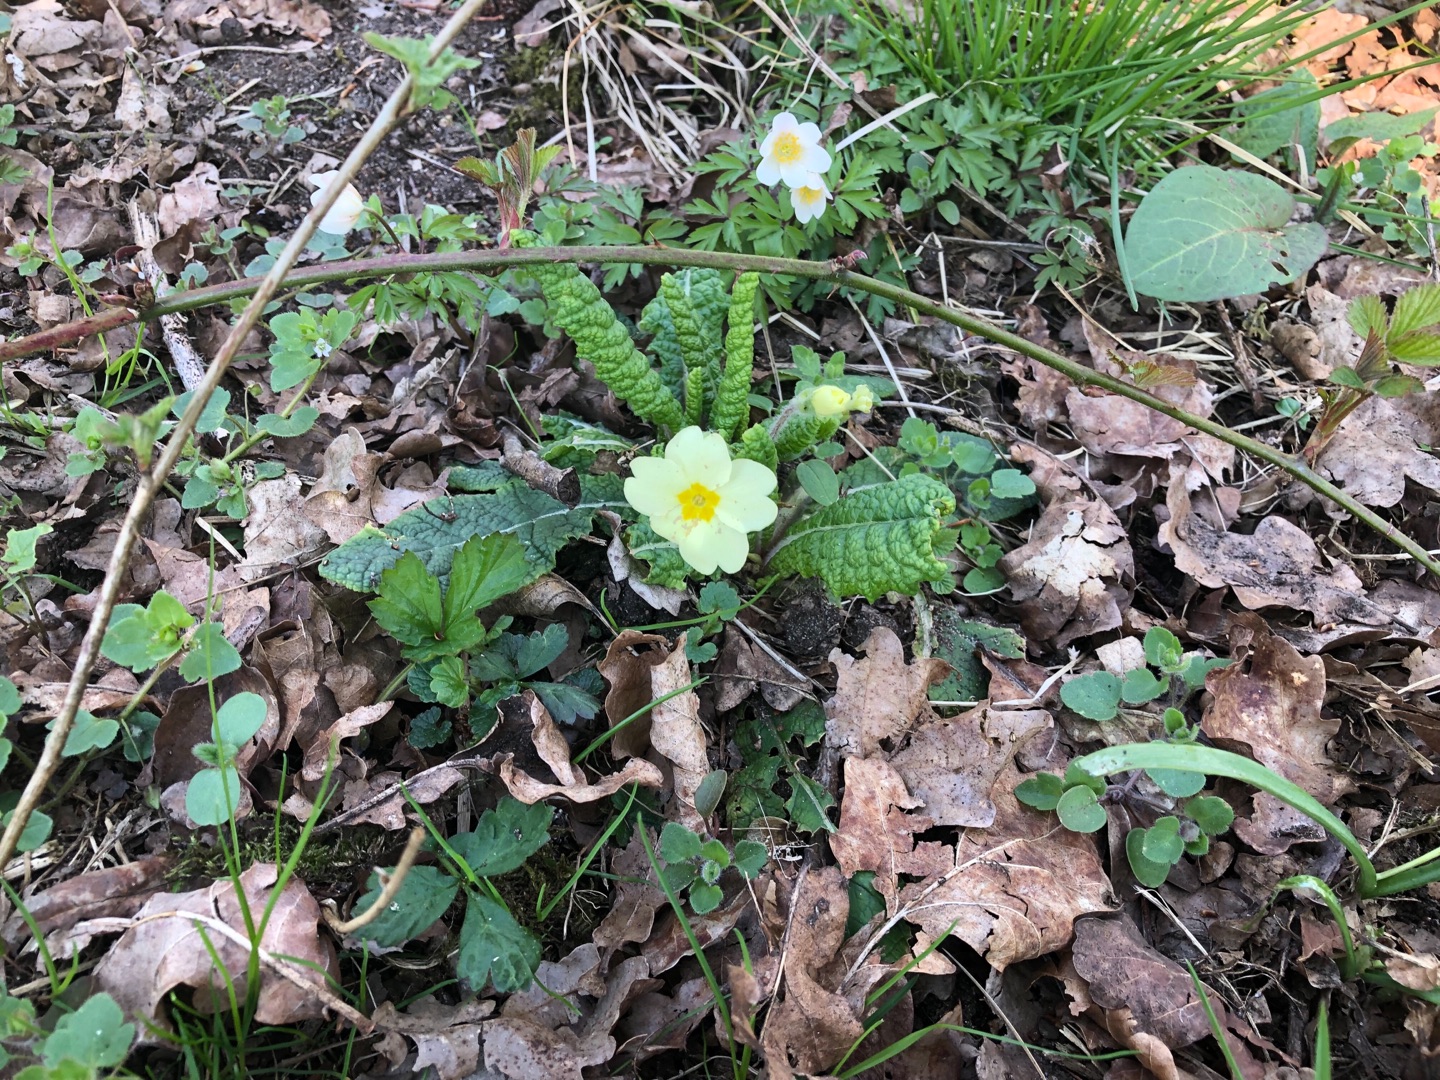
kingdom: Plantae
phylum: Tracheophyta
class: Magnoliopsida
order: Ericales
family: Primulaceae
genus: Primula
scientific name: Primula vulgaris
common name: Storblomstret kodriver
